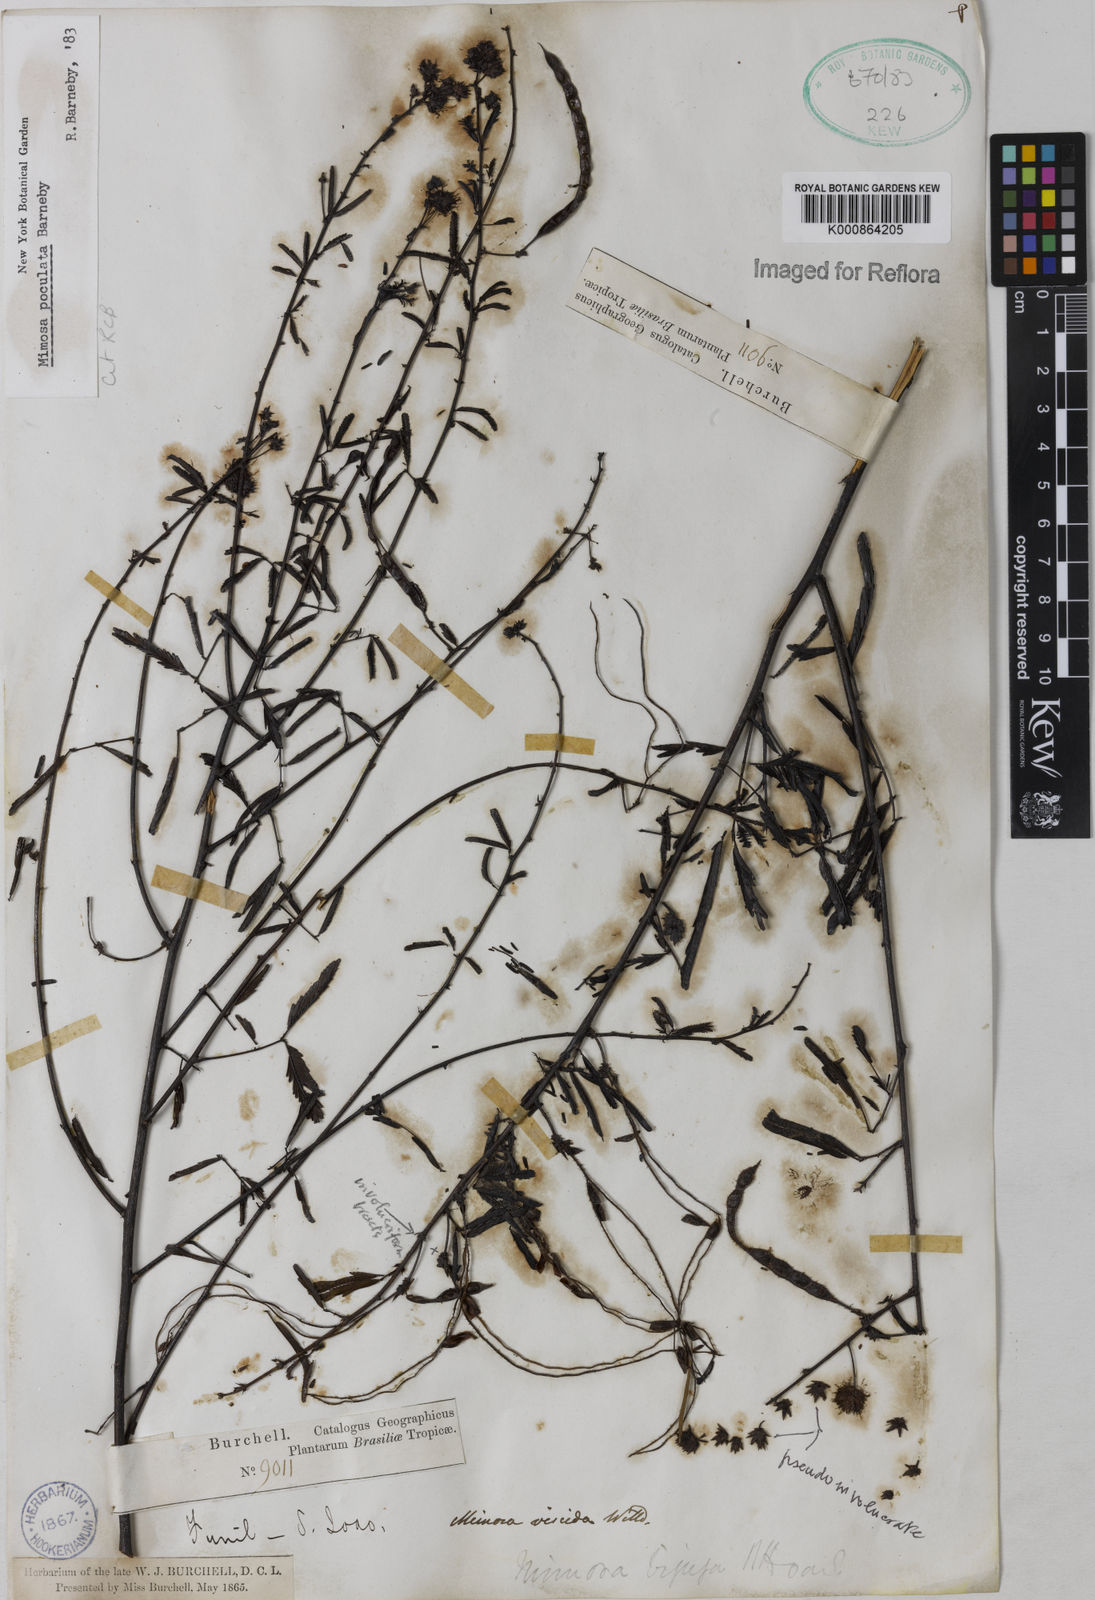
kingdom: Plantae
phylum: Tracheophyta
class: Magnoliopsida
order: Fabales
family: Fabaceae
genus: Mimosa
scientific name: Mimosa poculata
